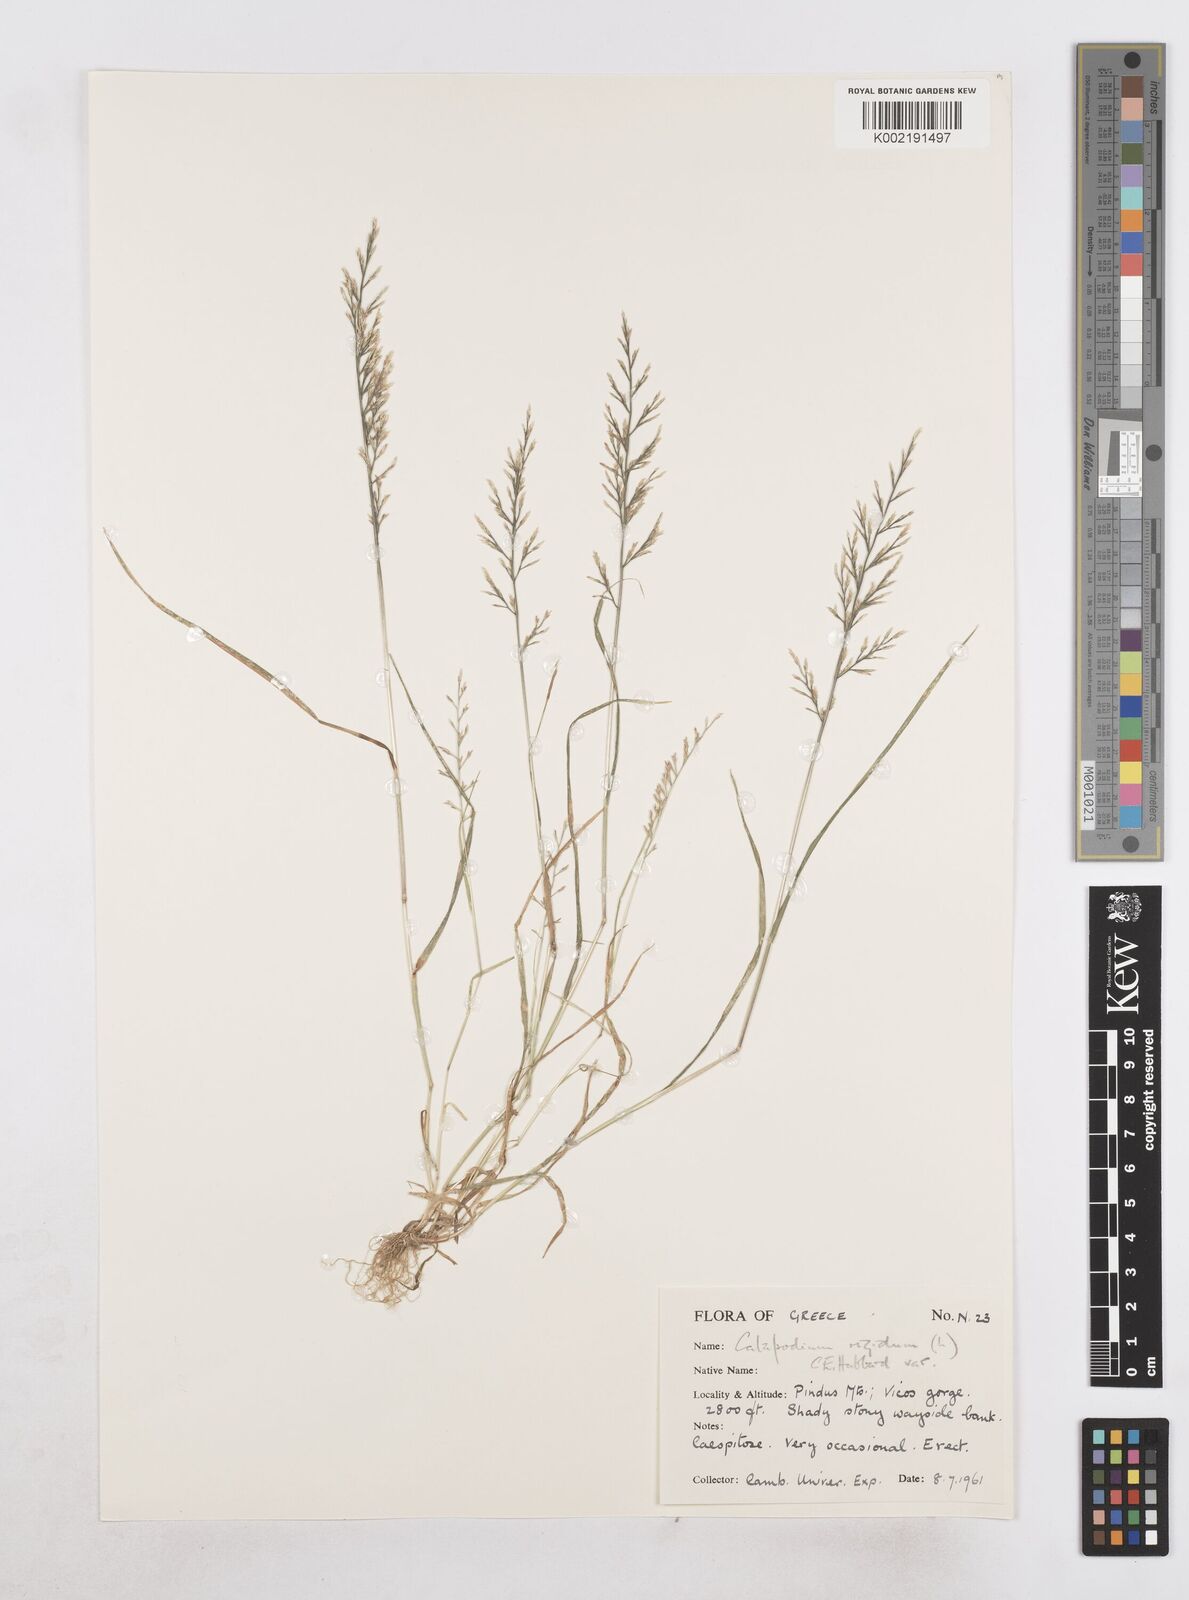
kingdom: Plantae
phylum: Tracheophyta
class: Liliopsida
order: Poales
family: Poaceae
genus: Catapodium
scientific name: Catapodium rigidum
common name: Fern-grass
